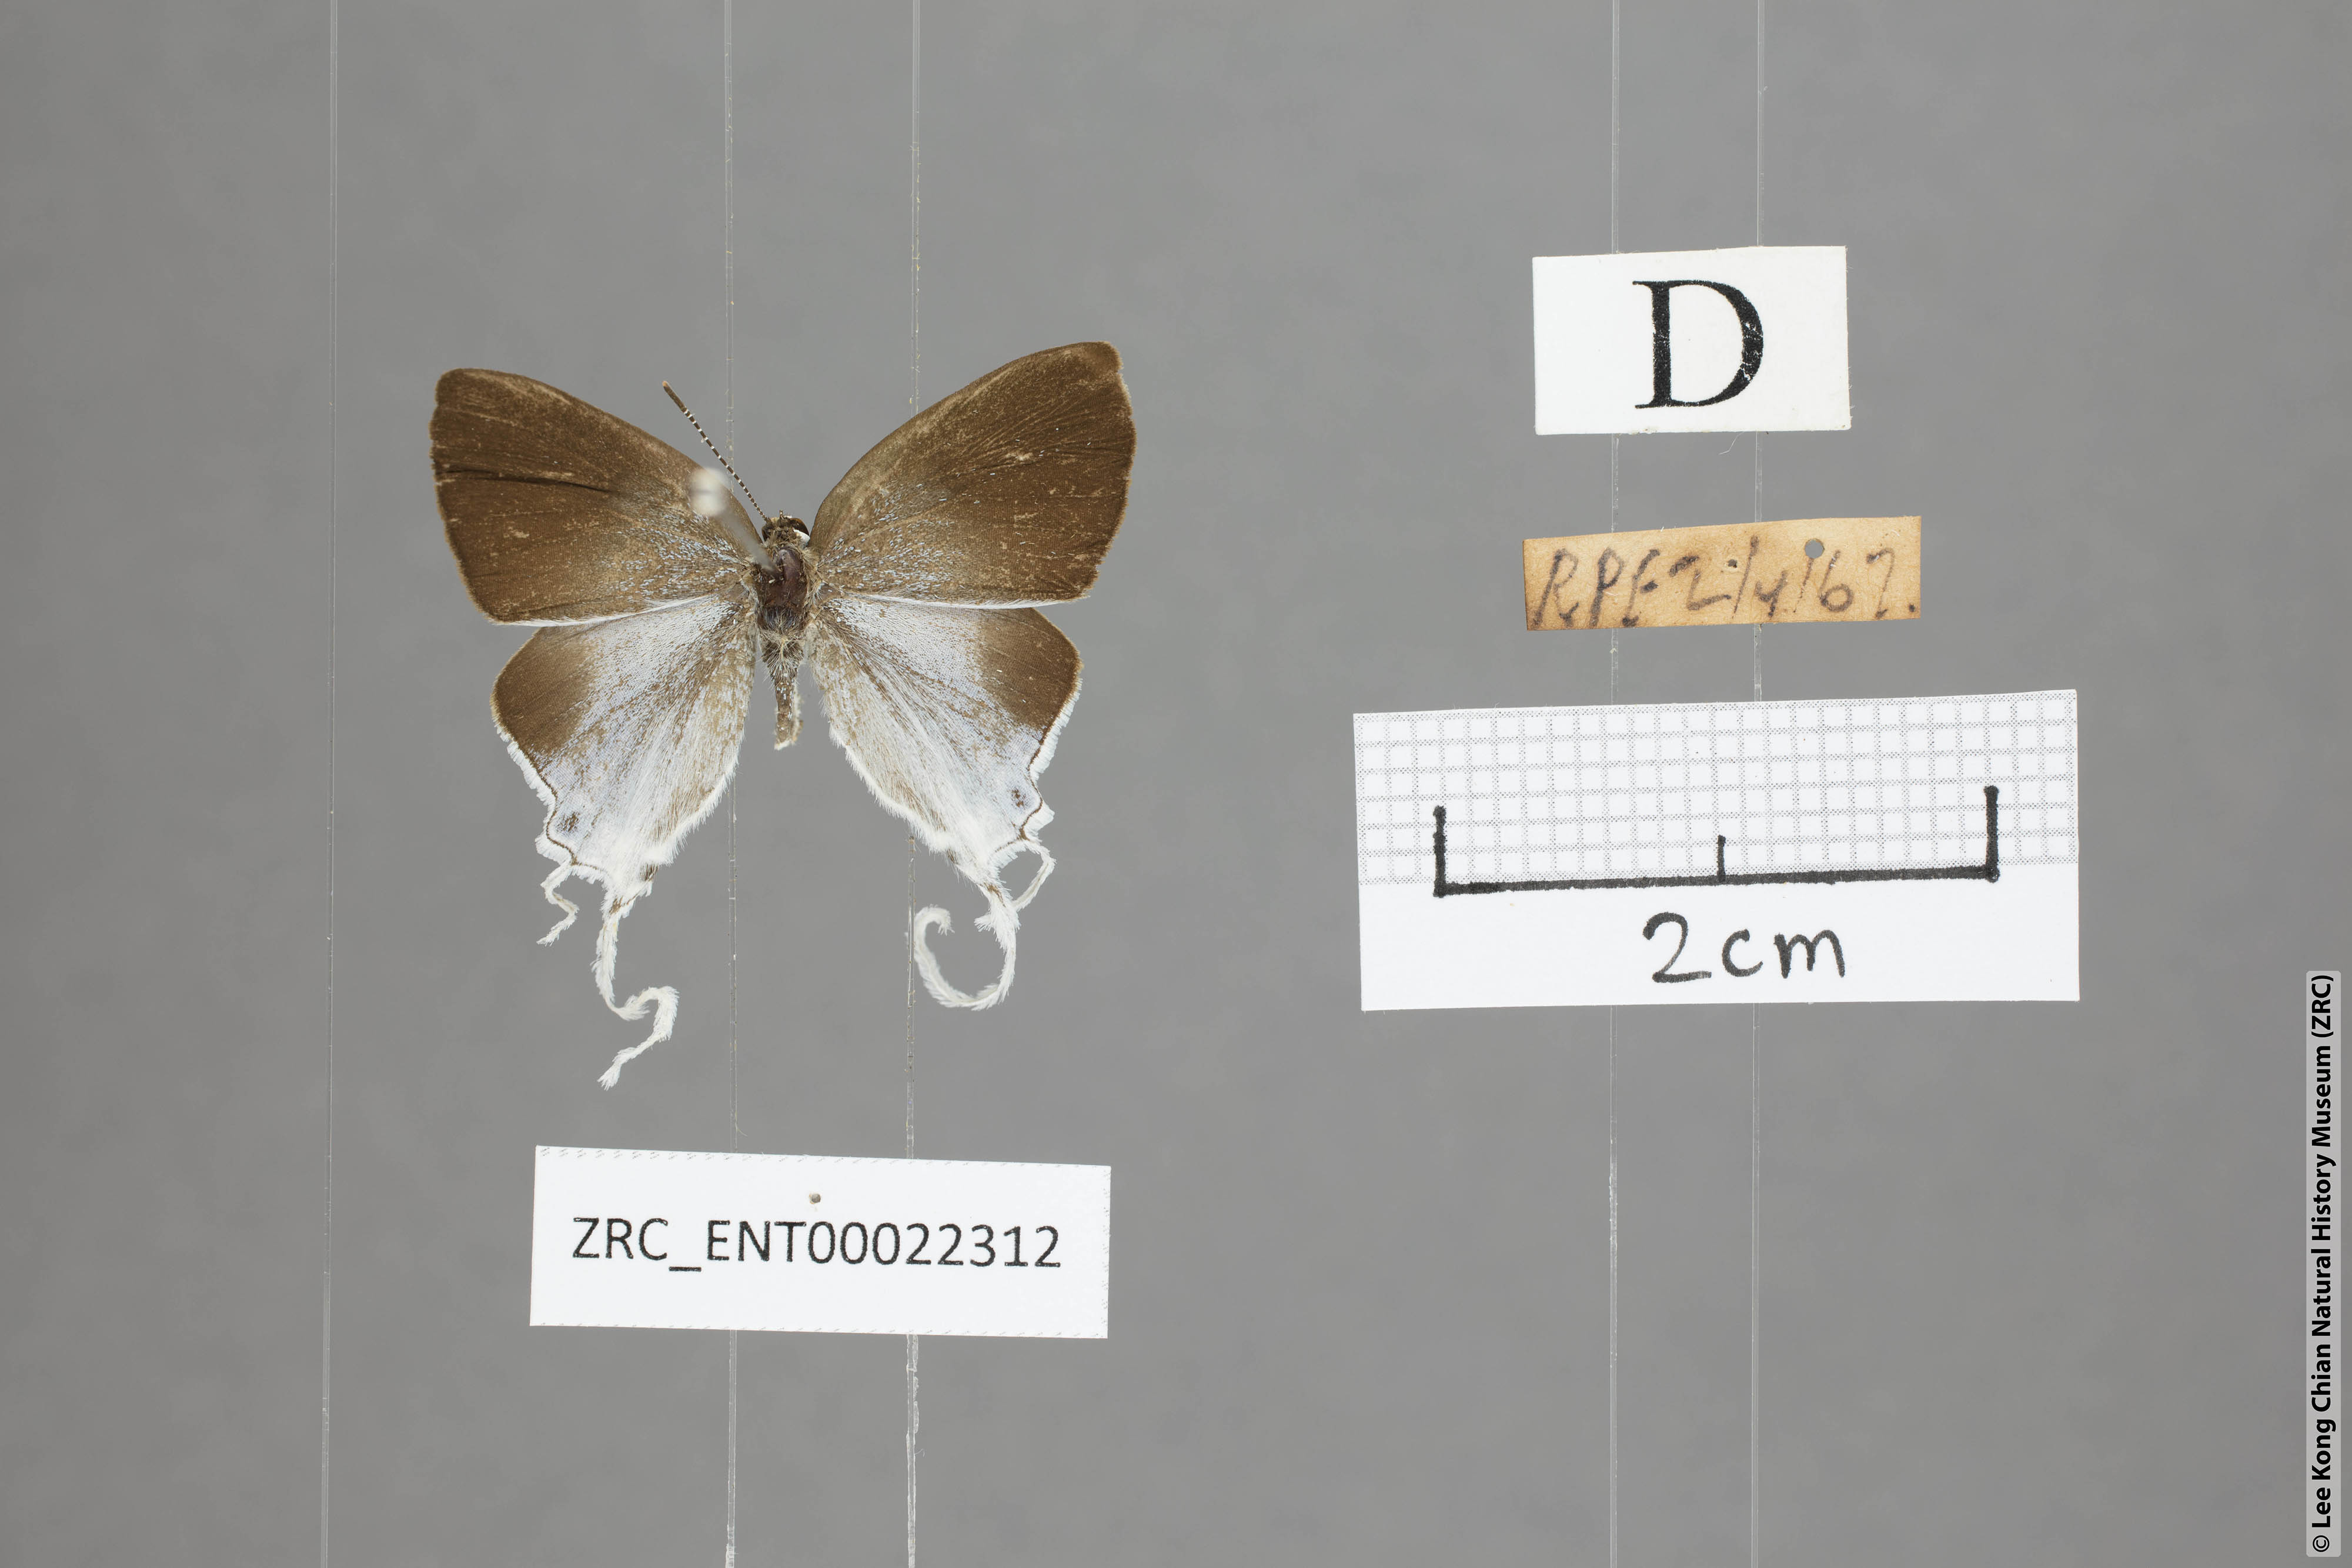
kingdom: Animalia
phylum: Arthropoda
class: Insecta
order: Lepidoptera
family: Lycaenidae
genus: Zeltus
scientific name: Zeltus amasa
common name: Fluffy tit
